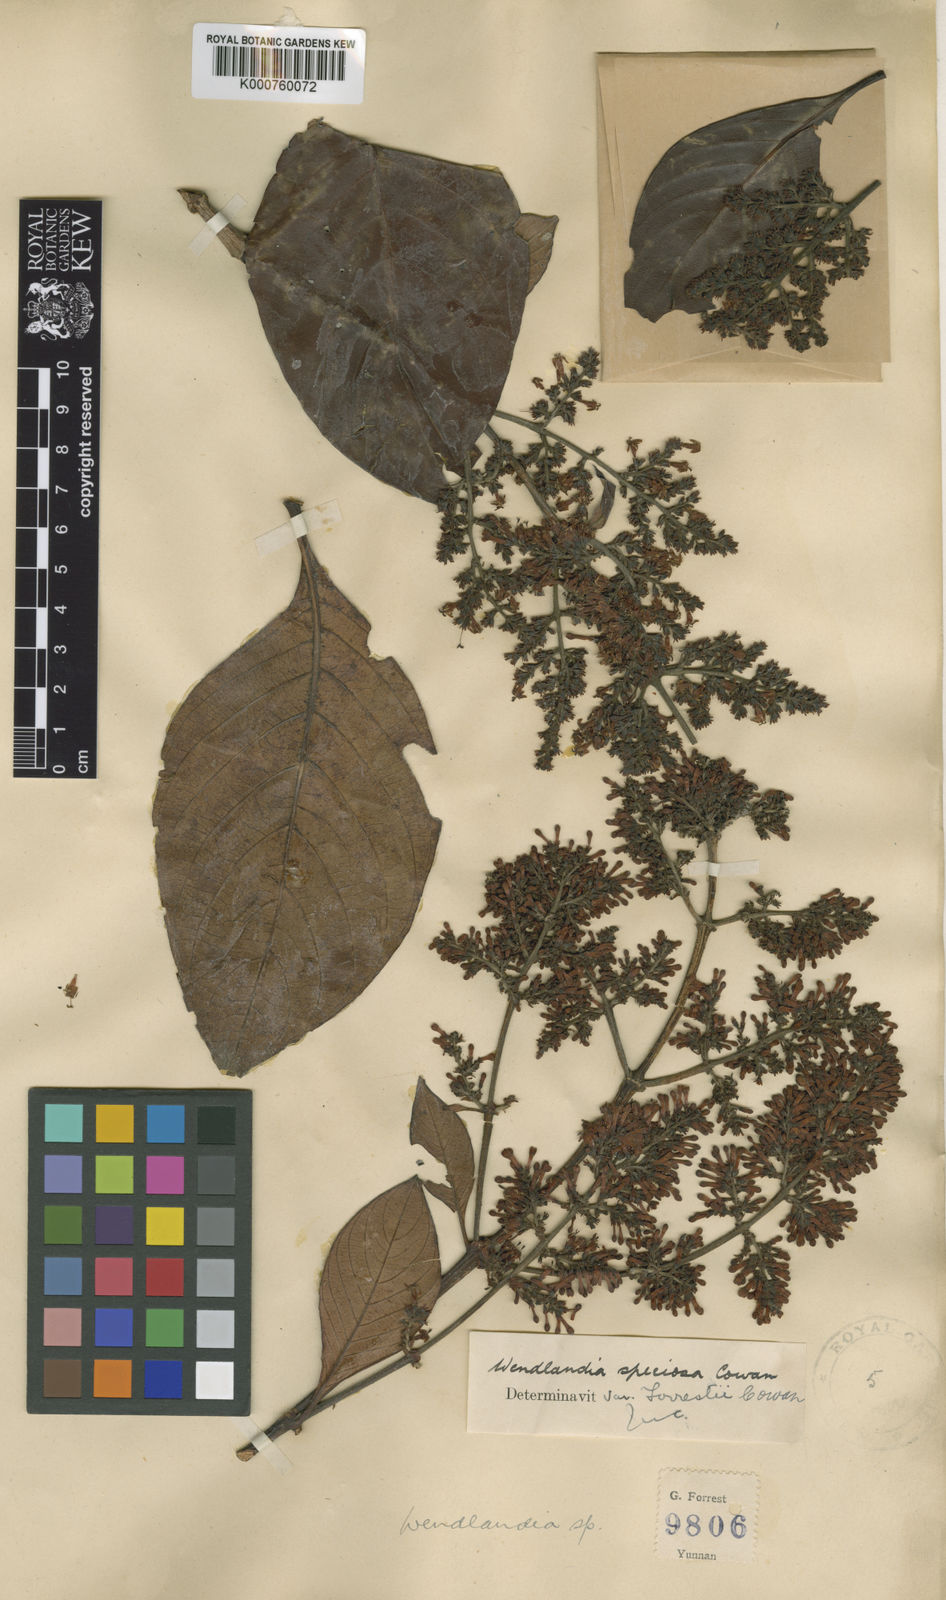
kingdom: Plantae
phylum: Tracheophyta
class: Magnoliopsida
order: Gentianales
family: Rubiaceae
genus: Wendlandia
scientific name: Wendlandia speciosa
